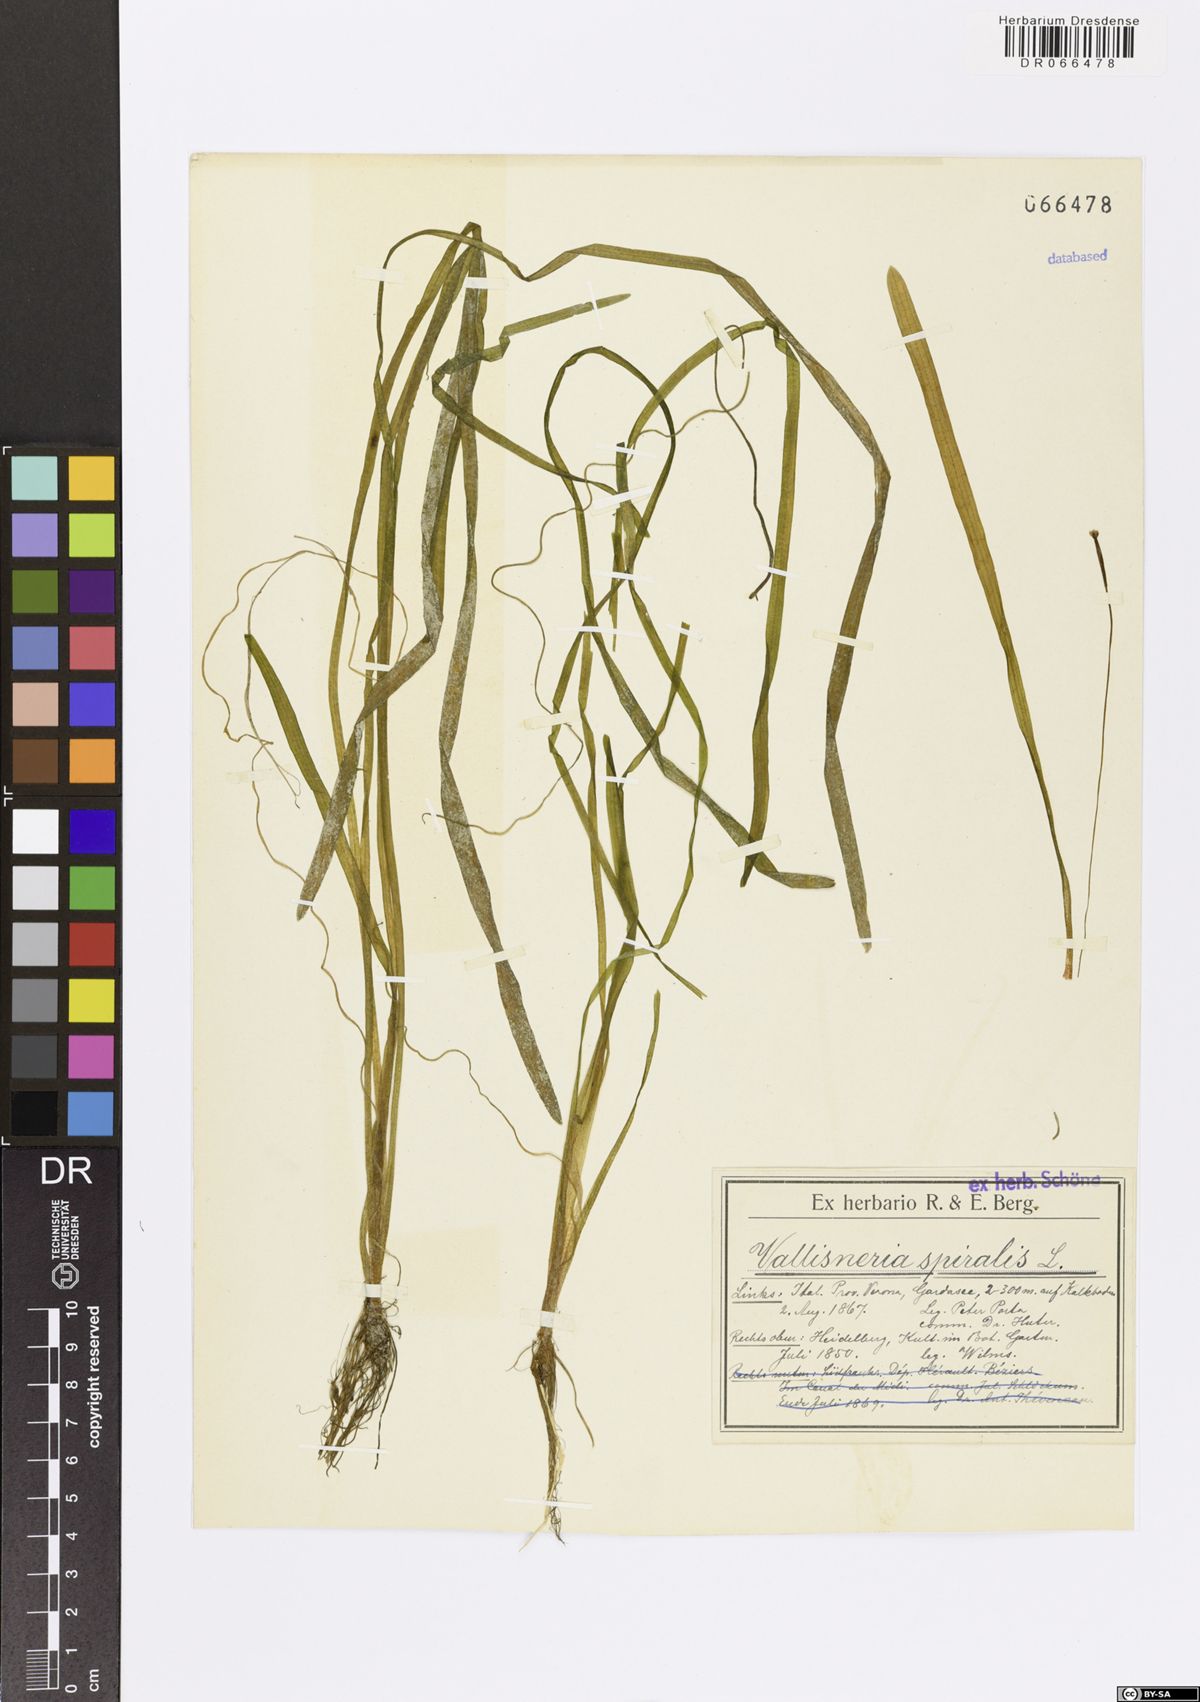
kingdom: Plantae
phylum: Tracheophyta
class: Liliopsida
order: Alismatales
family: Hydrocharitaceae
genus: Vallisneria
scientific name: Vallisneria spiralis
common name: Tapegrass
